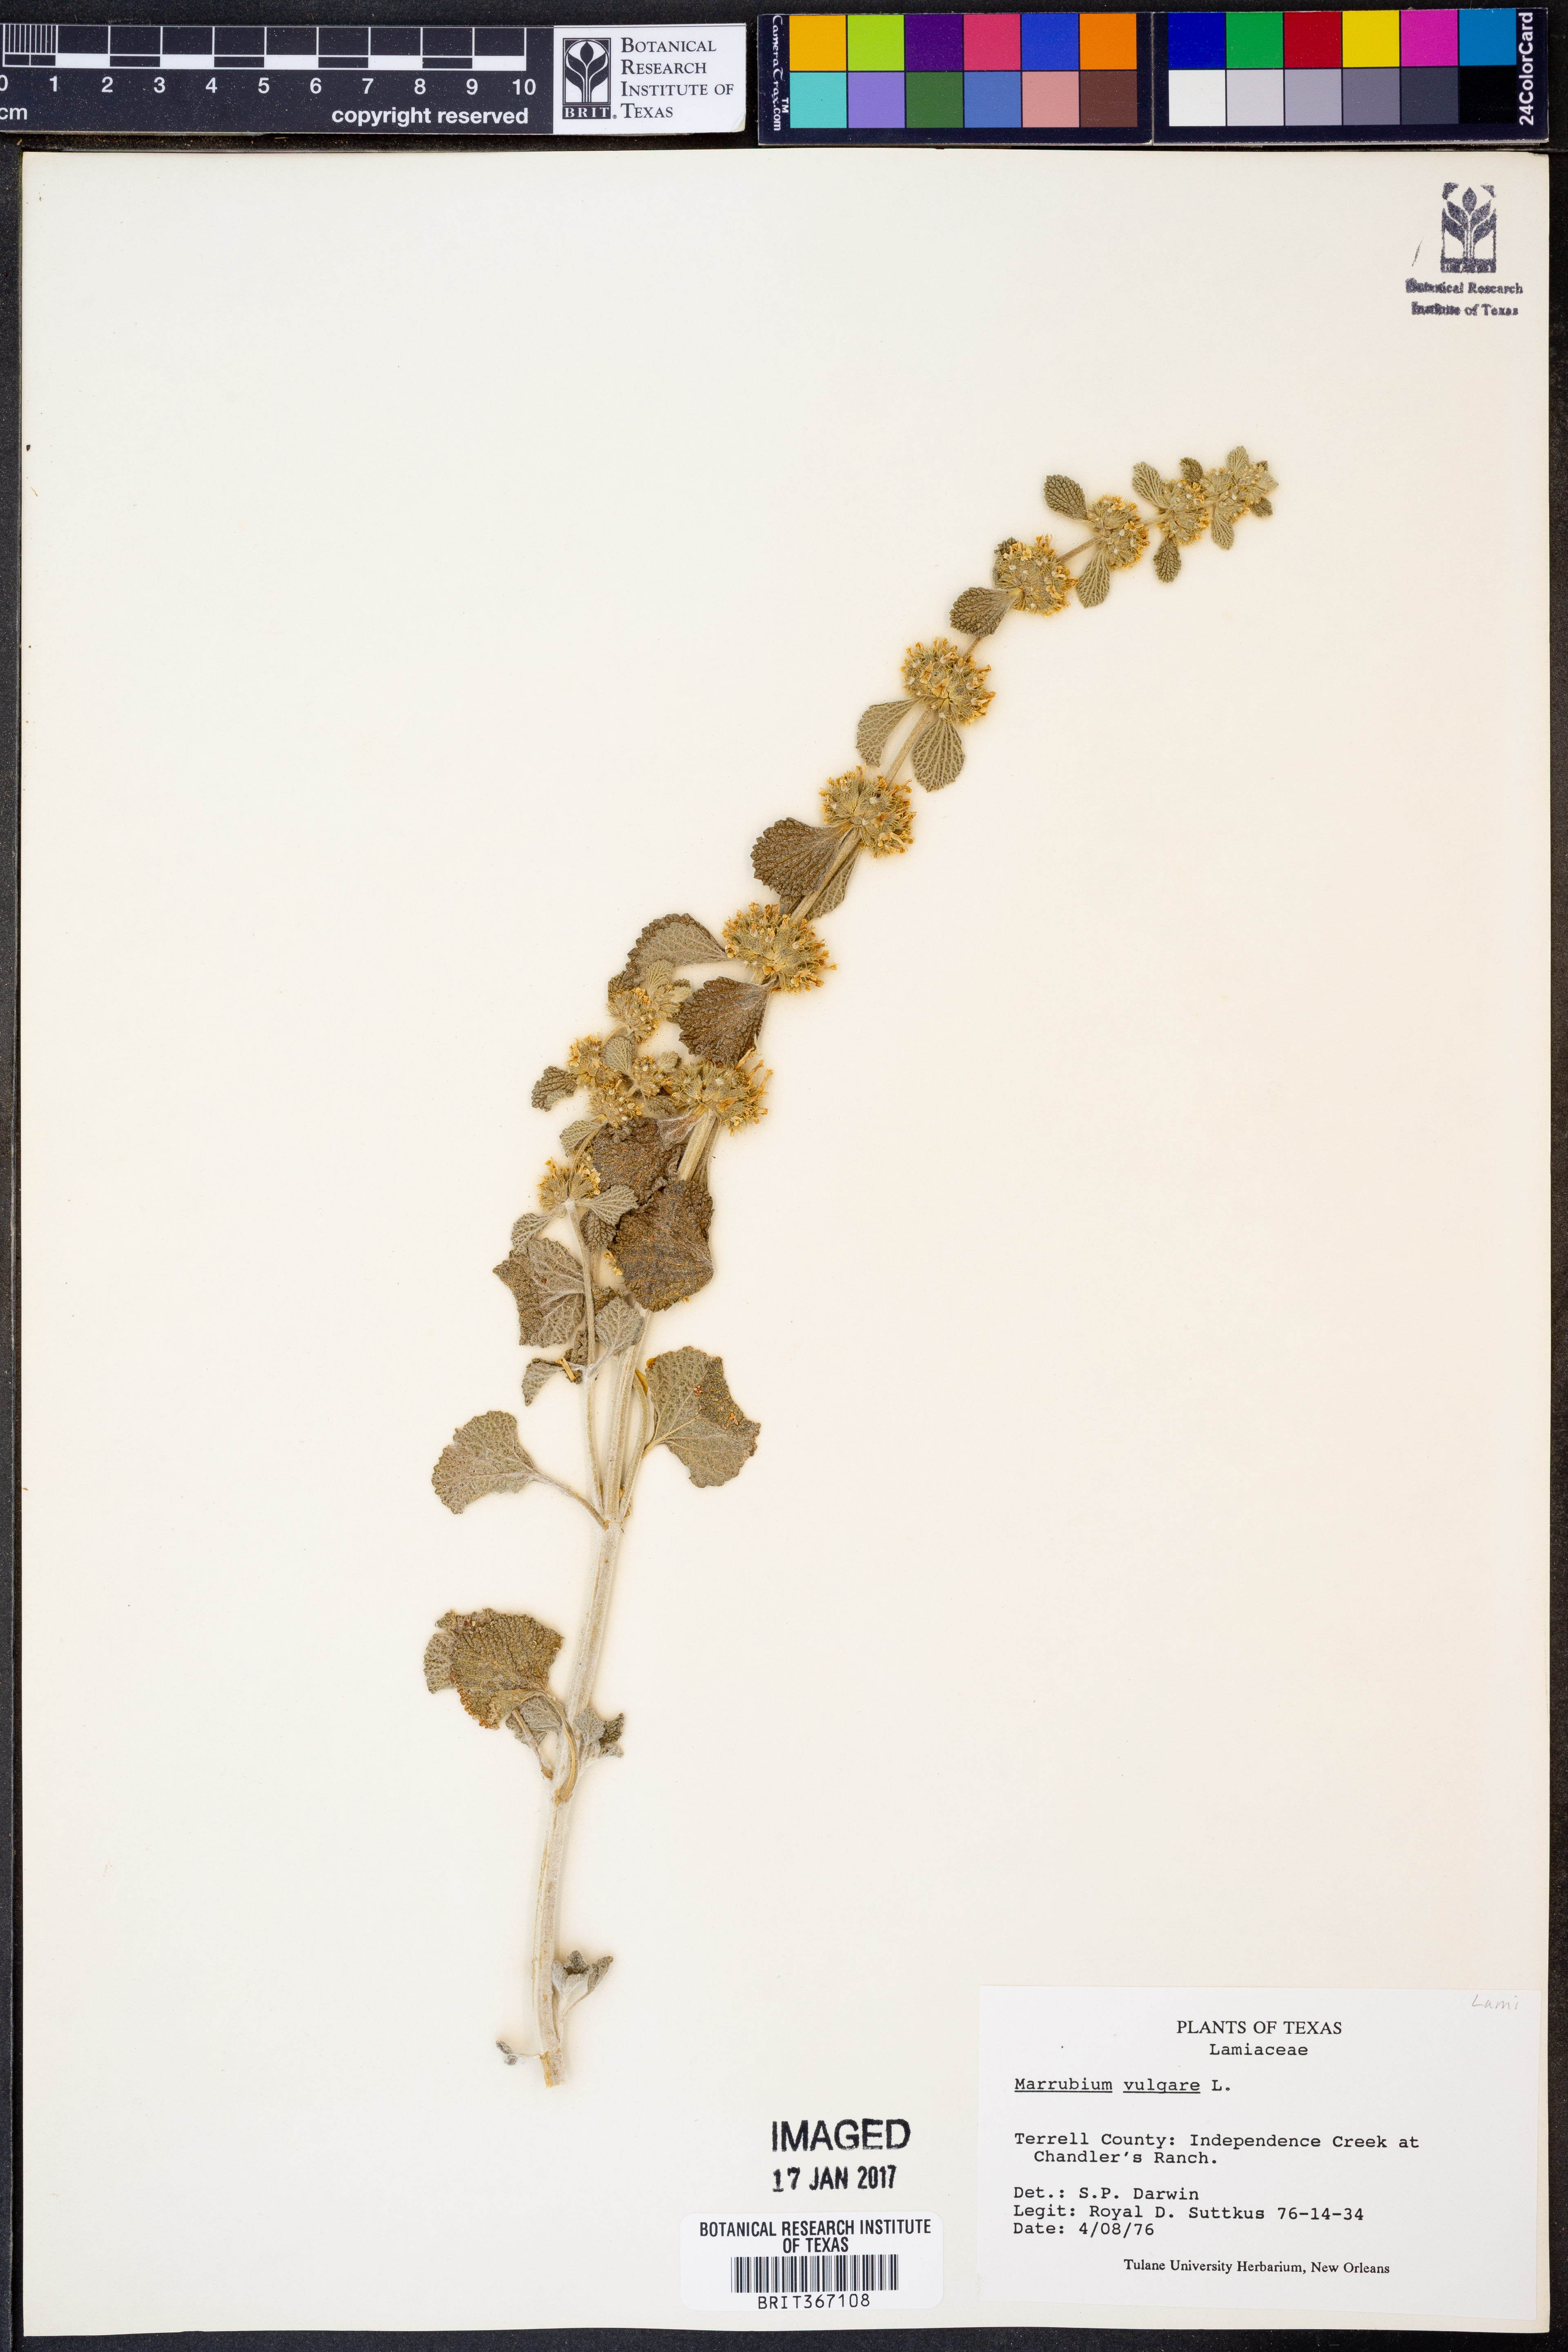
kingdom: Plantae
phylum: Tracheophyta
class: Magnoliopsida
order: Lamiales
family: Lamiaceae
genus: Marrubium
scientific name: Marrubium vulgare
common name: Horehound
